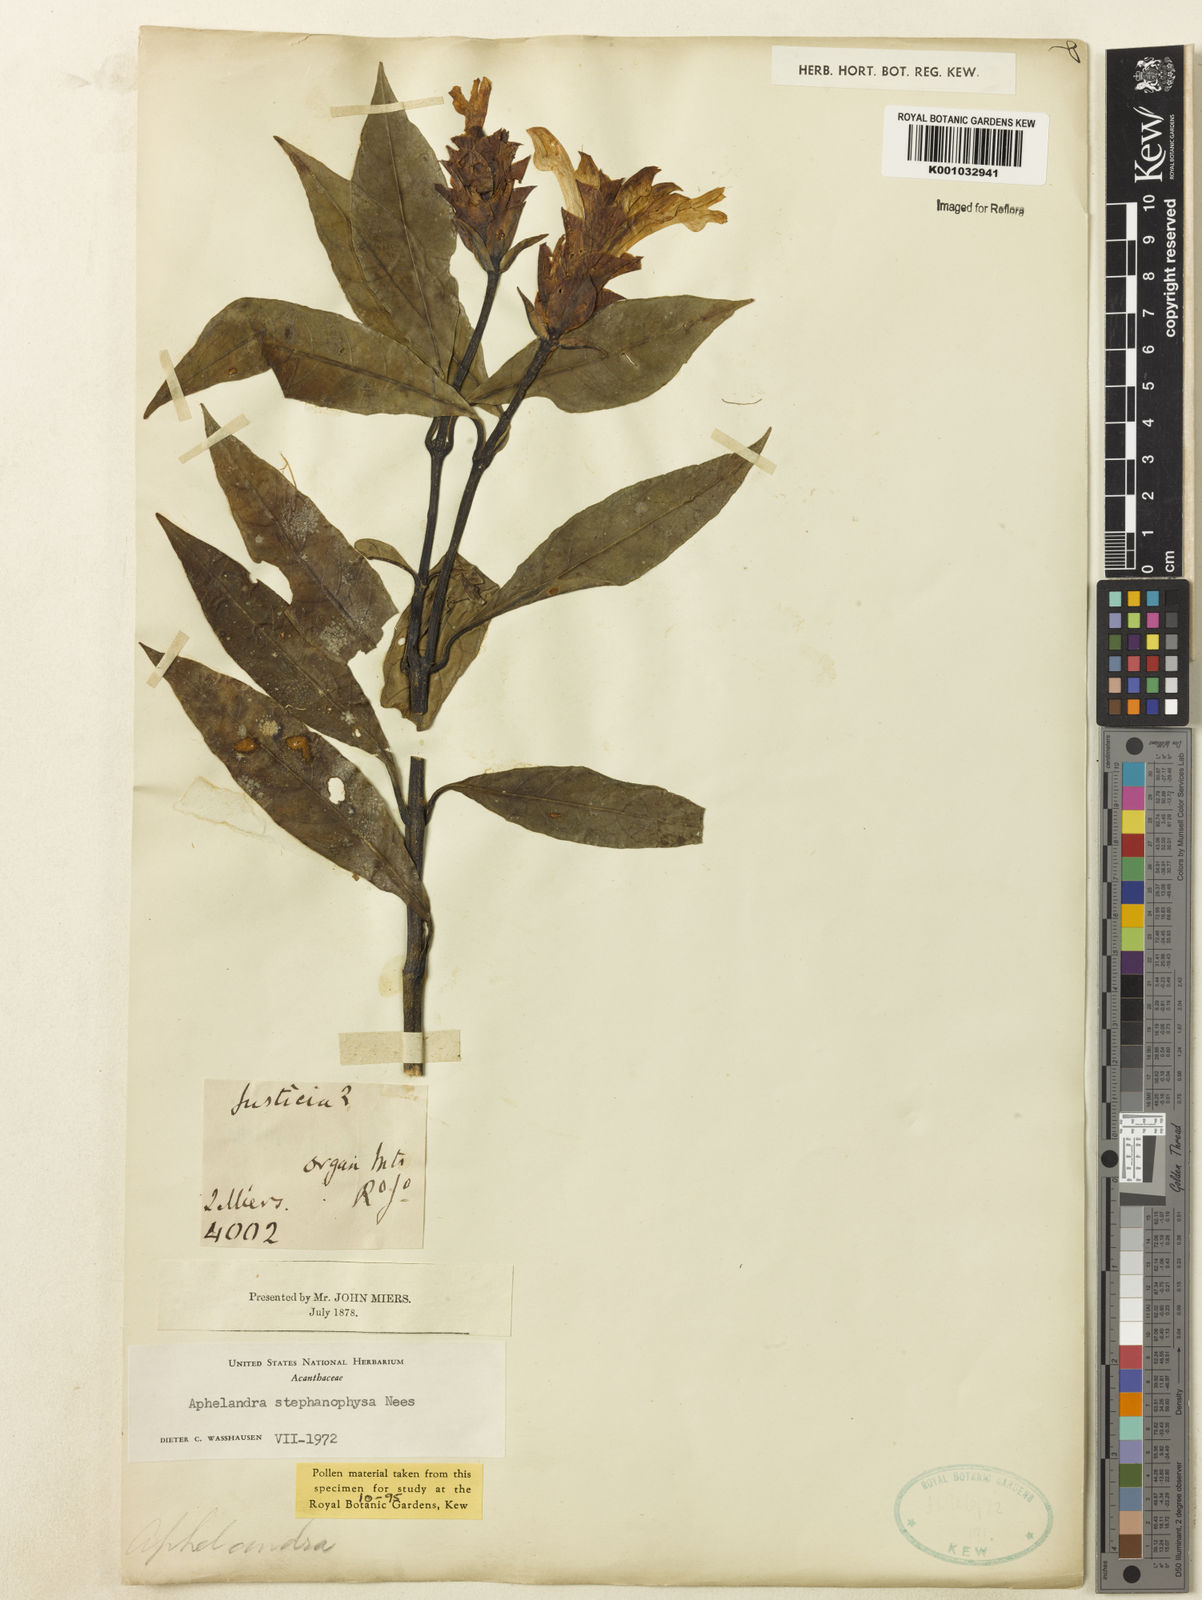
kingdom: Plantae
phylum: Tracheophyta
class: Magnoliopsida
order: Lamiales
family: Acanthaceae
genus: Aphelandra
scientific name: Aphelandra stephanophysa
